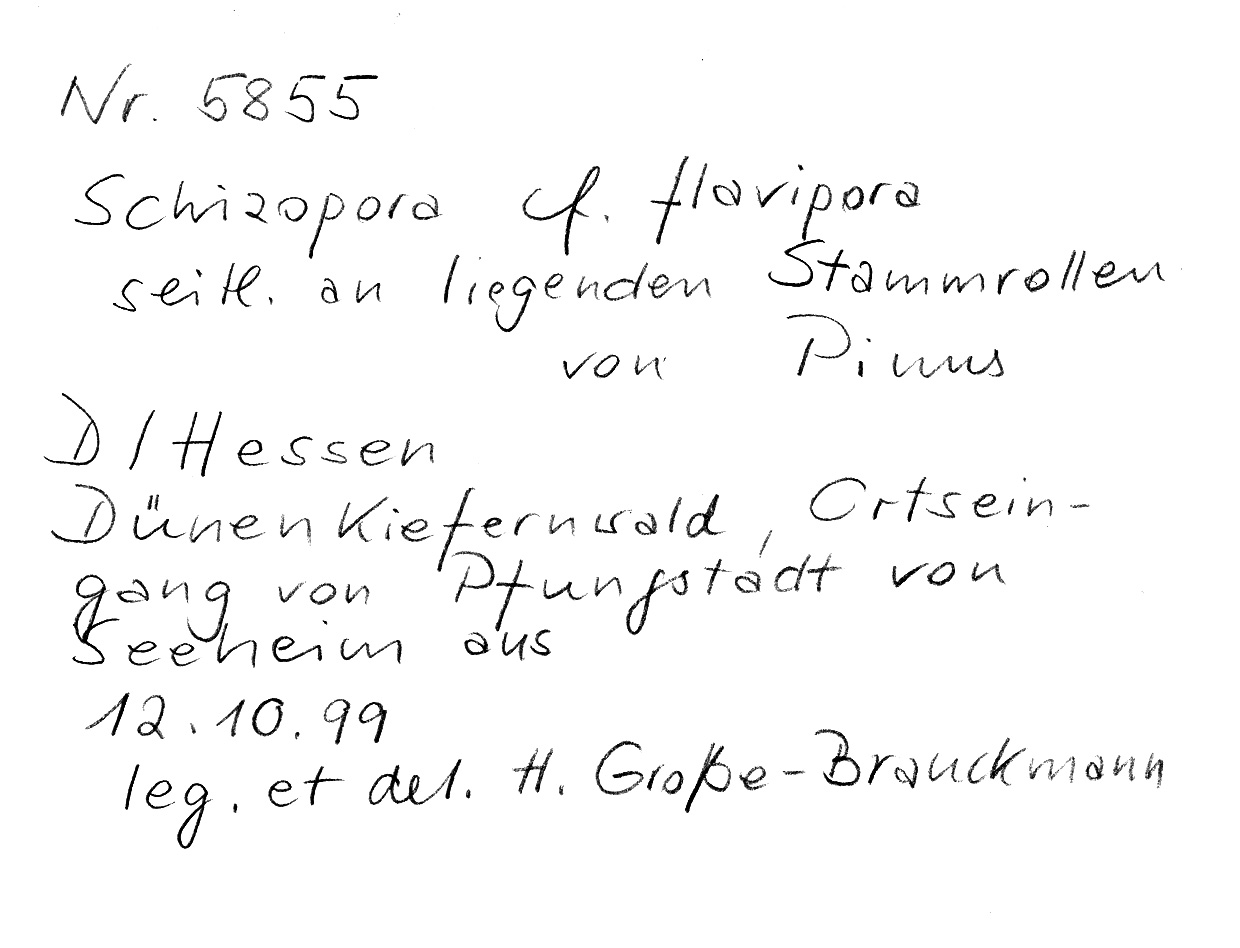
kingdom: Plantae
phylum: Tracheophyta
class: Pinopsida
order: Pinales
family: Pinaceae
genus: Pinus
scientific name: Pinus
